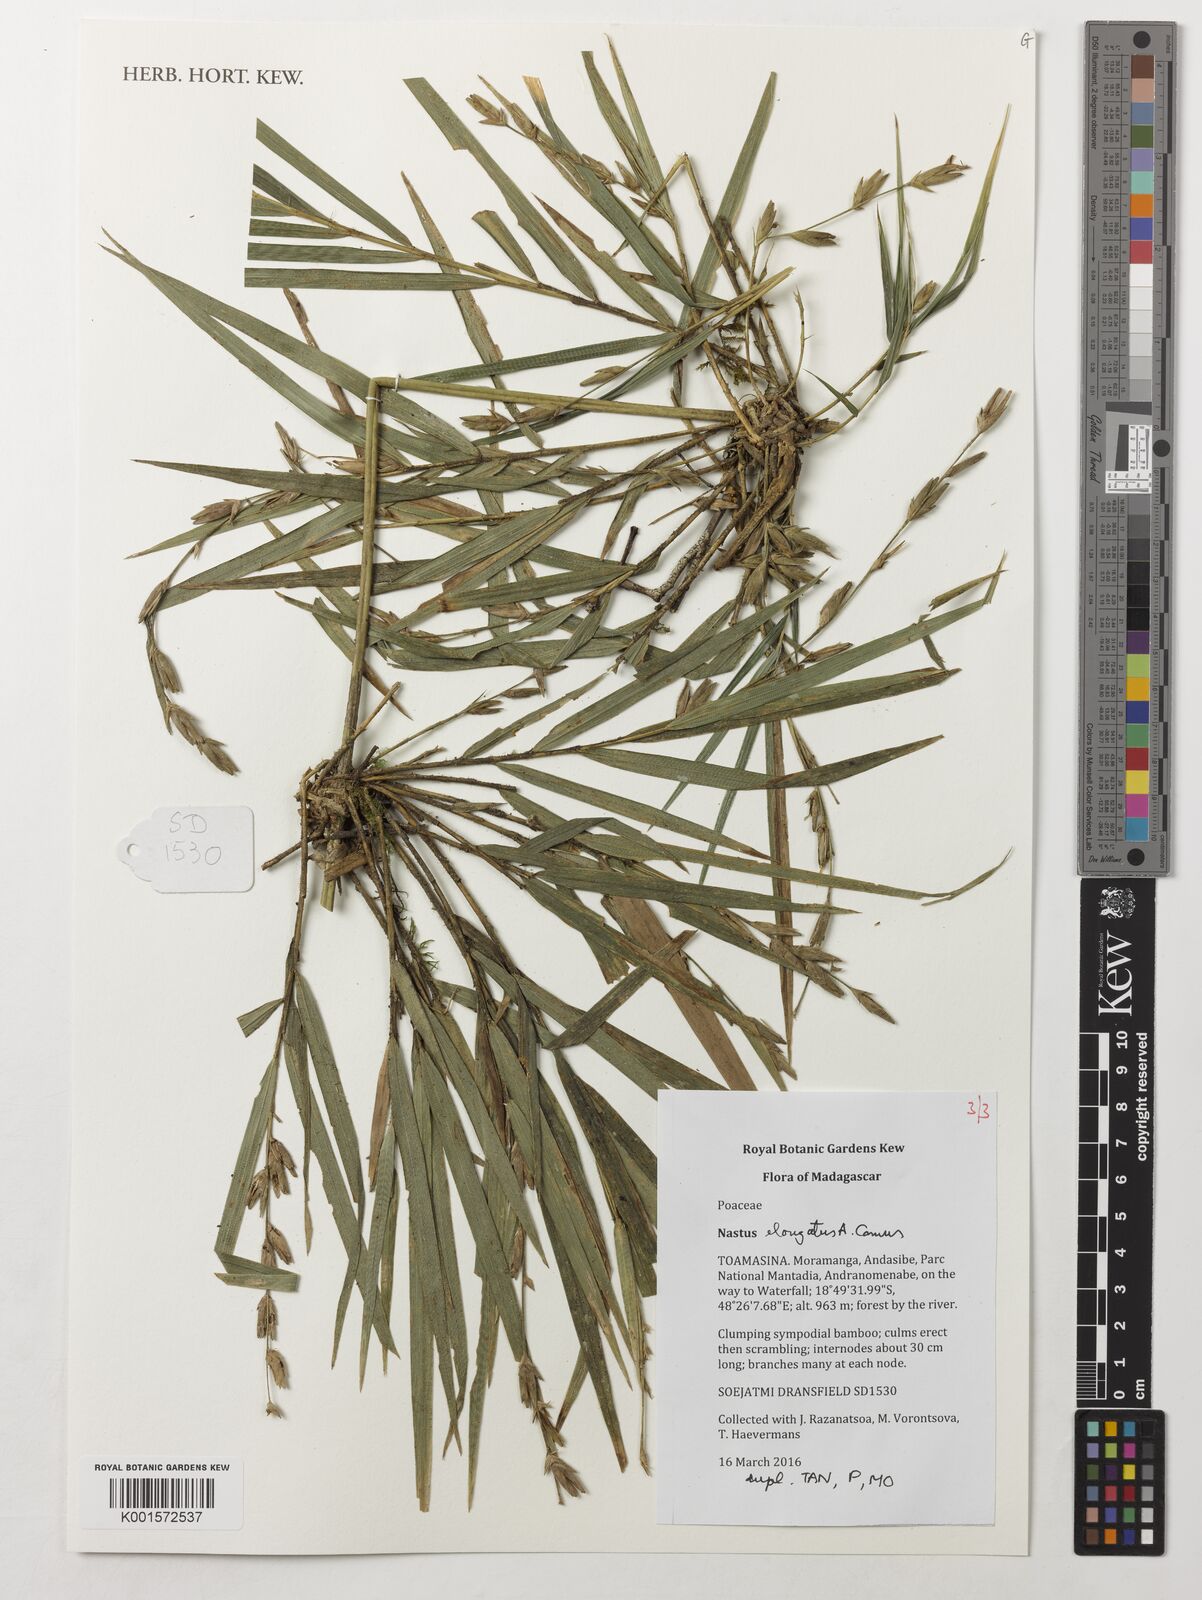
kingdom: Plantae
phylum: Tracheophyta
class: Liliopsida
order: Poales
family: Poaceae
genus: Nastus
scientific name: Nastus elongatus
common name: Spider bamboo
